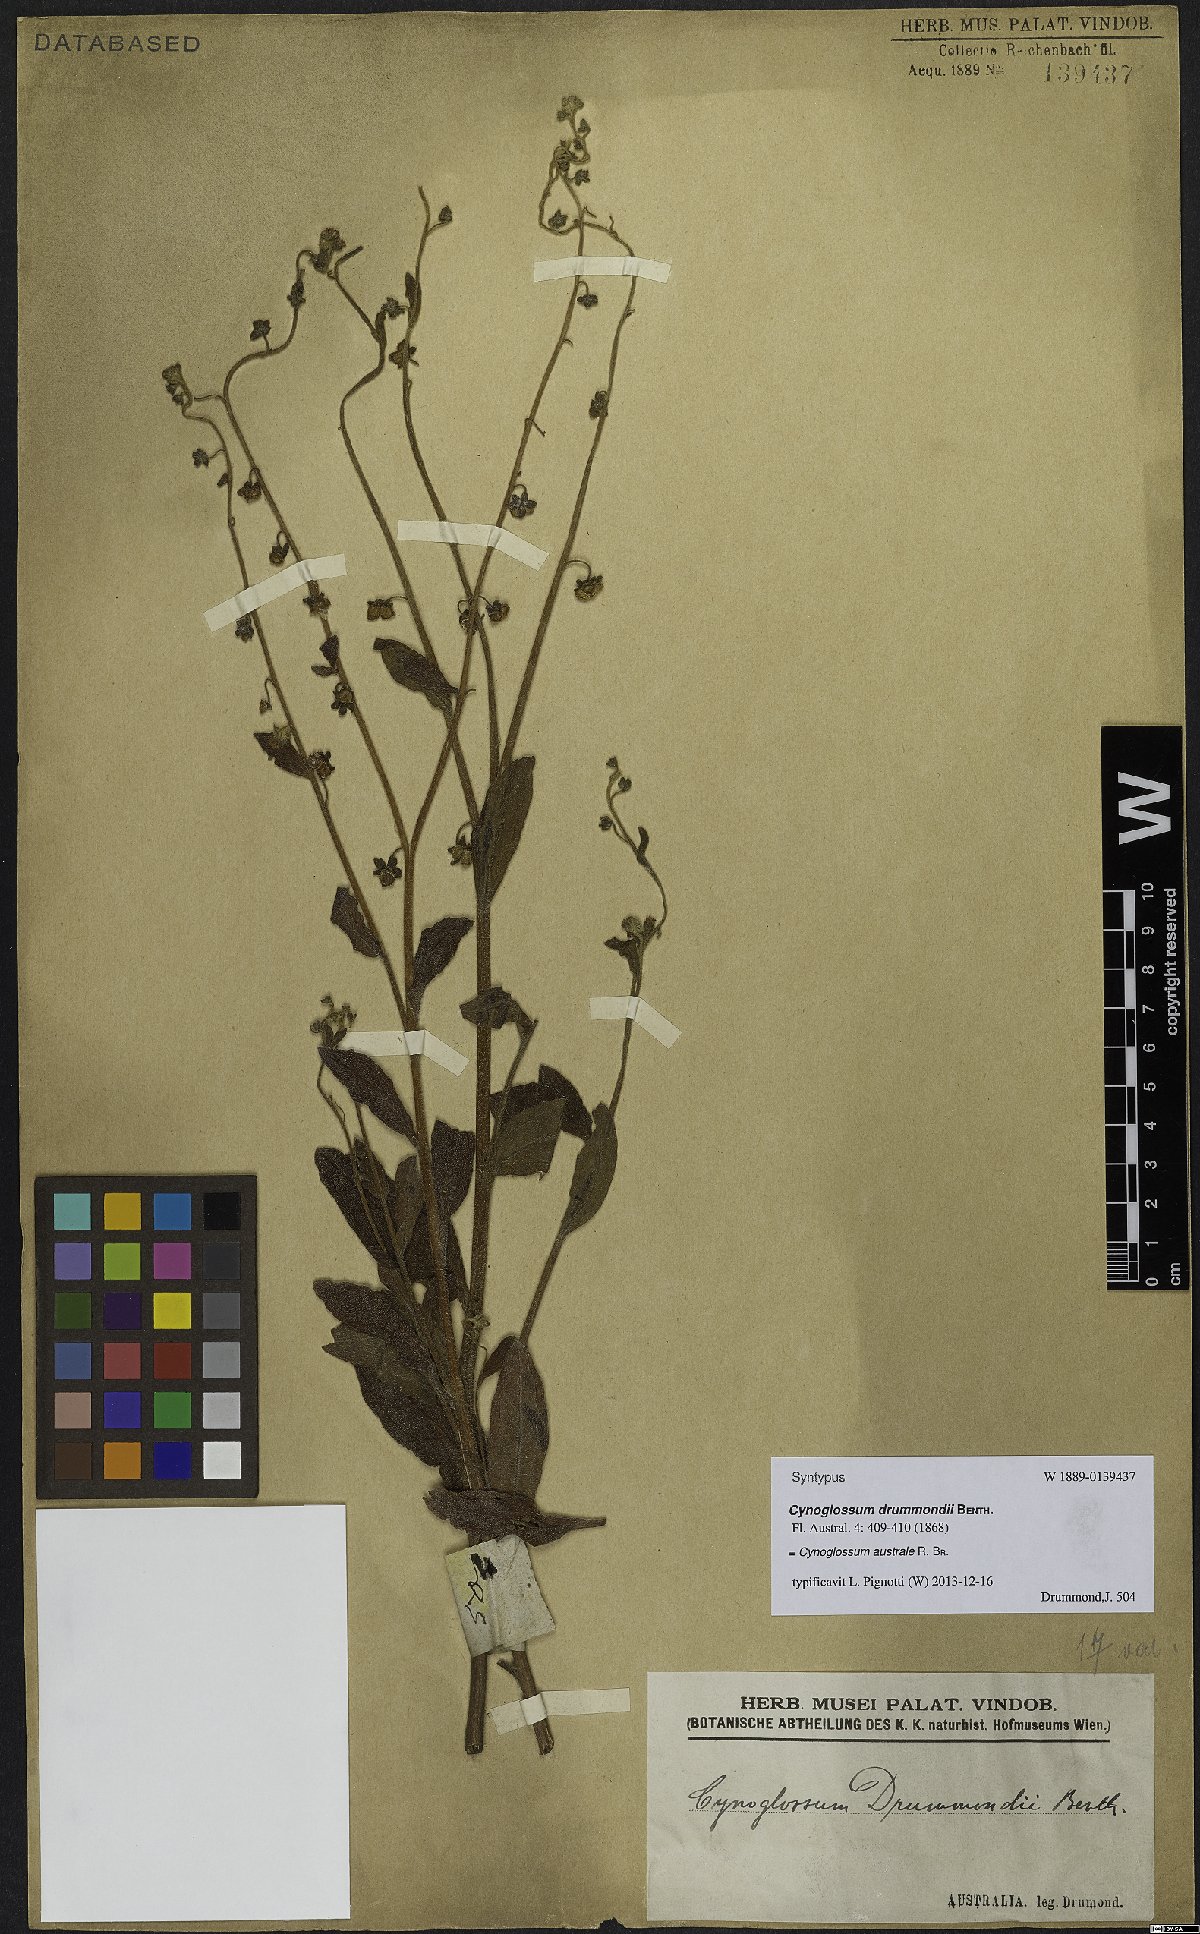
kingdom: Plantae
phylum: Tracheophyta
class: Magnoliopsida
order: Boraginales
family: Boraginaceae
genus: Cynoglossum
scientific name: Cynoglossum australe
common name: Australian hound's-tongue
